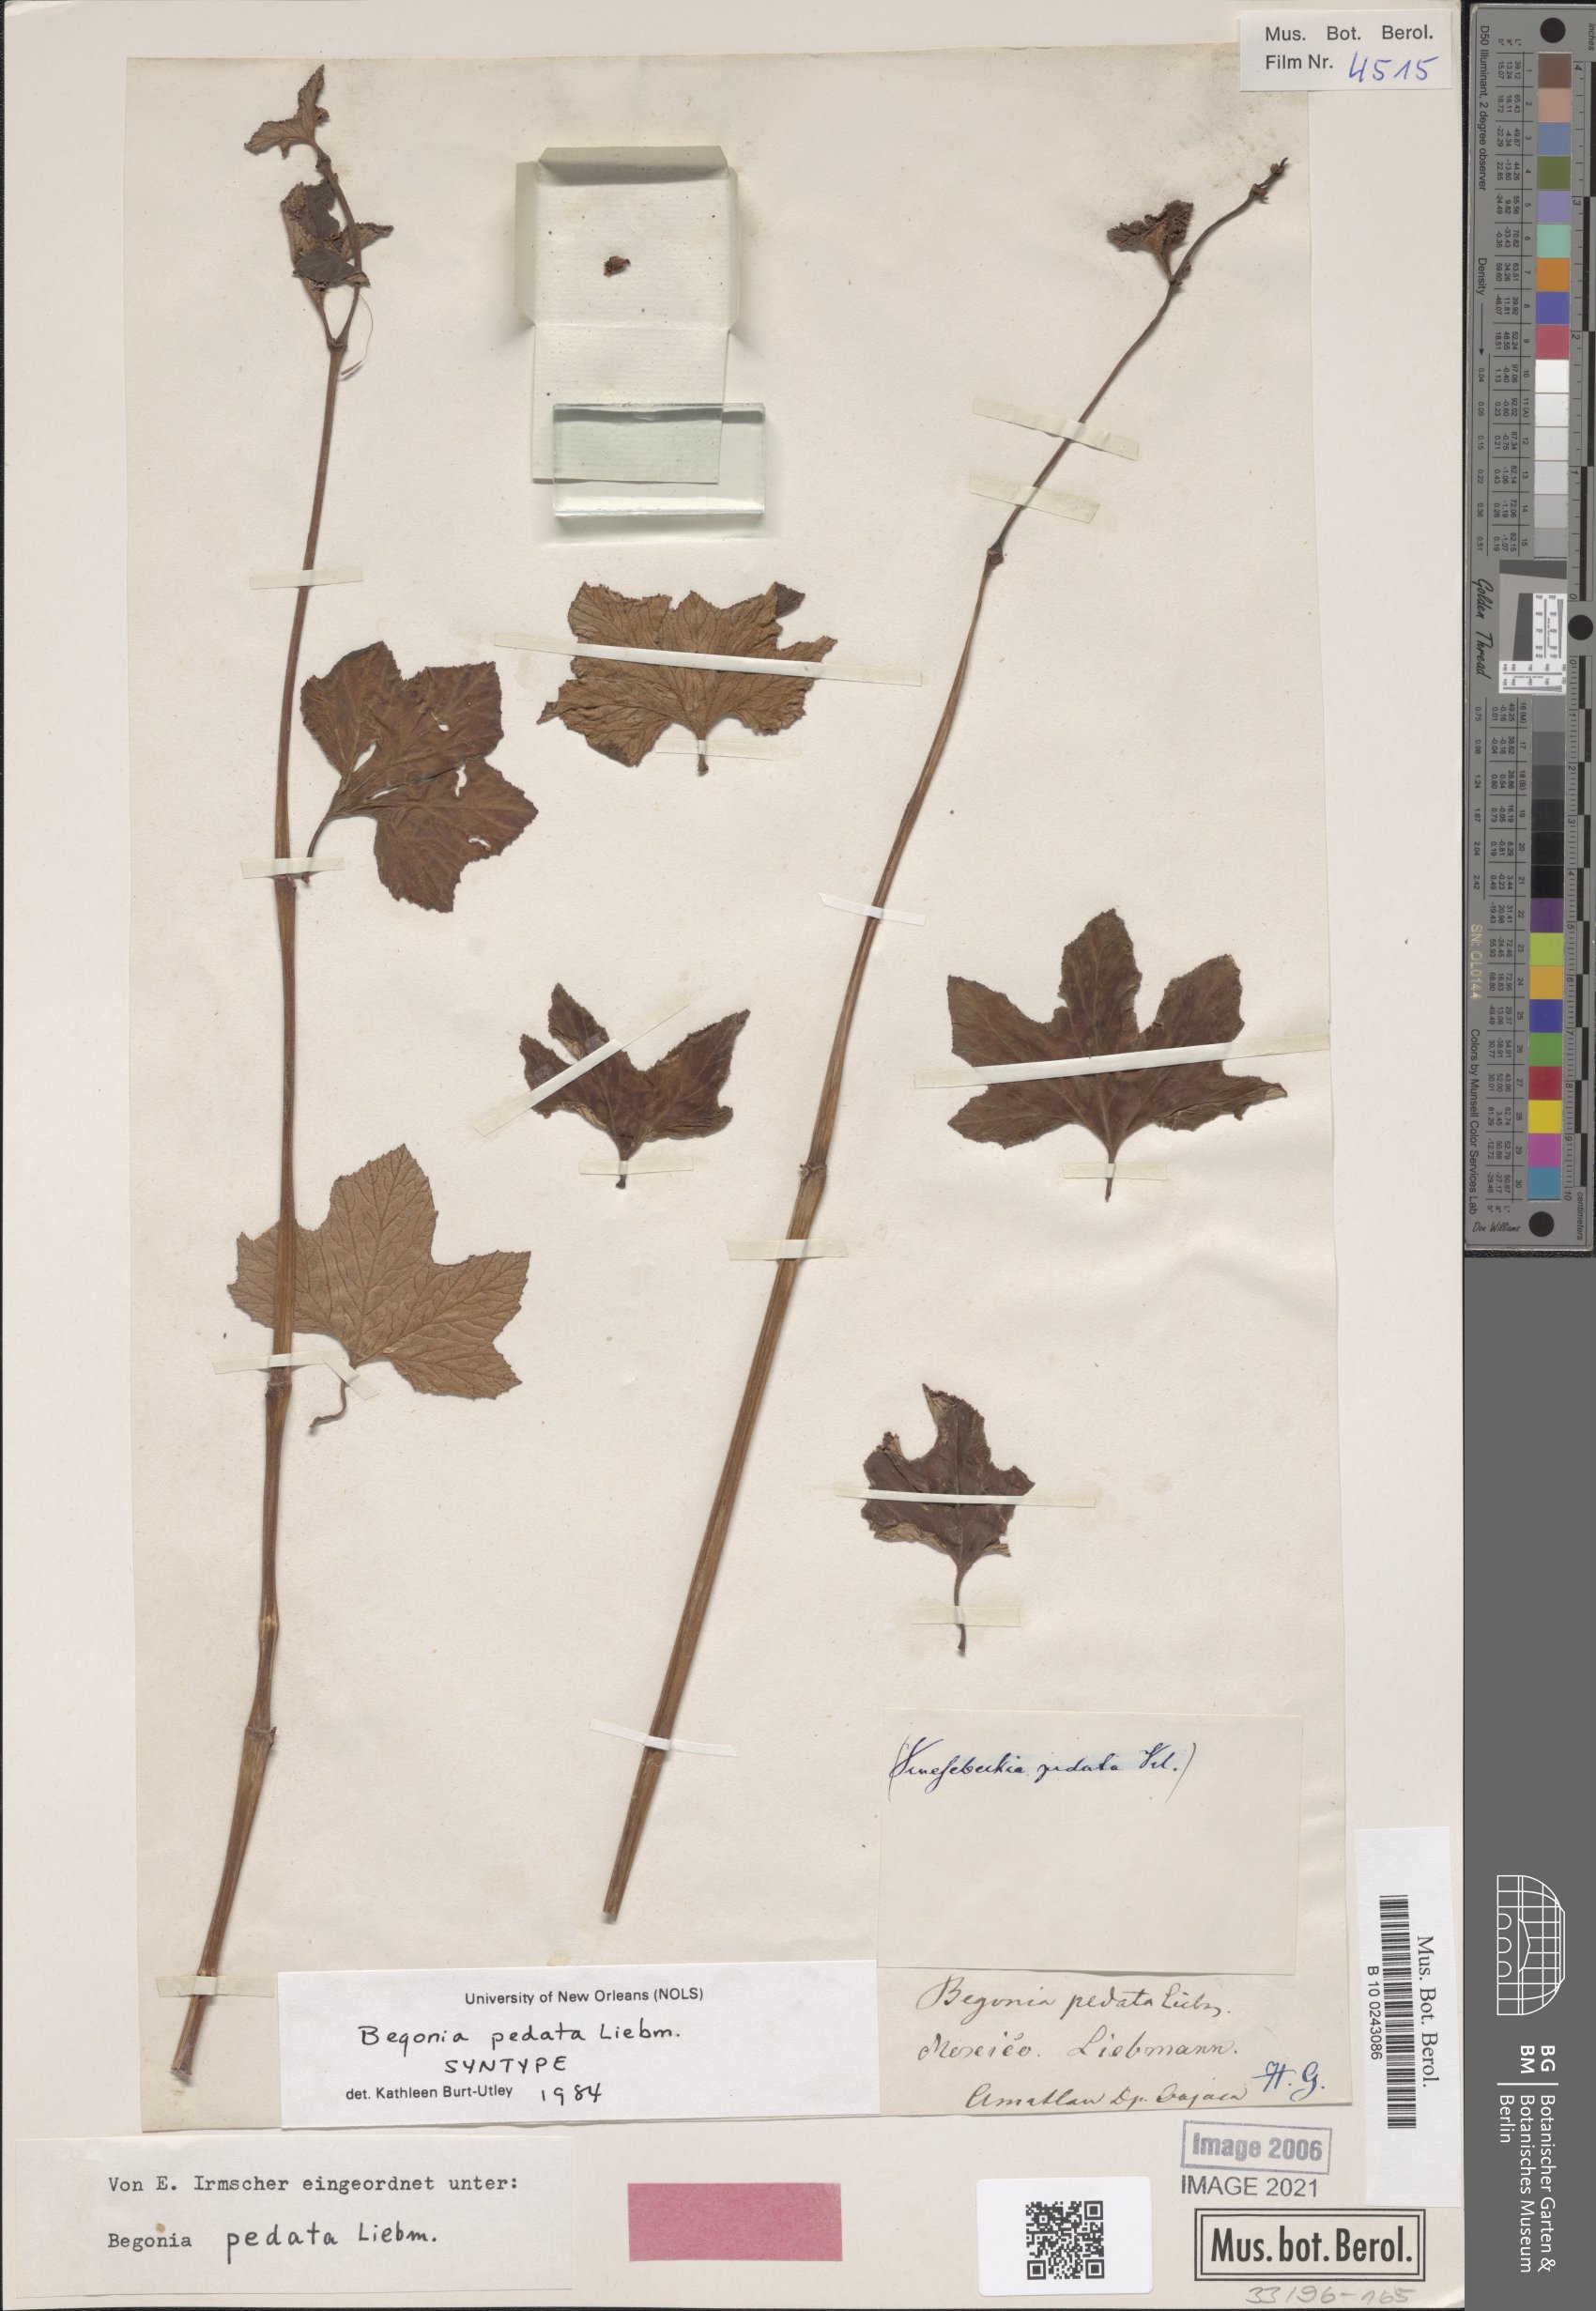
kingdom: Plantae
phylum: Tracheophyta
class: Magnoliopsida
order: Cucurbitales
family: Begoniaceae
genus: Begonia
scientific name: Begonia pedata
